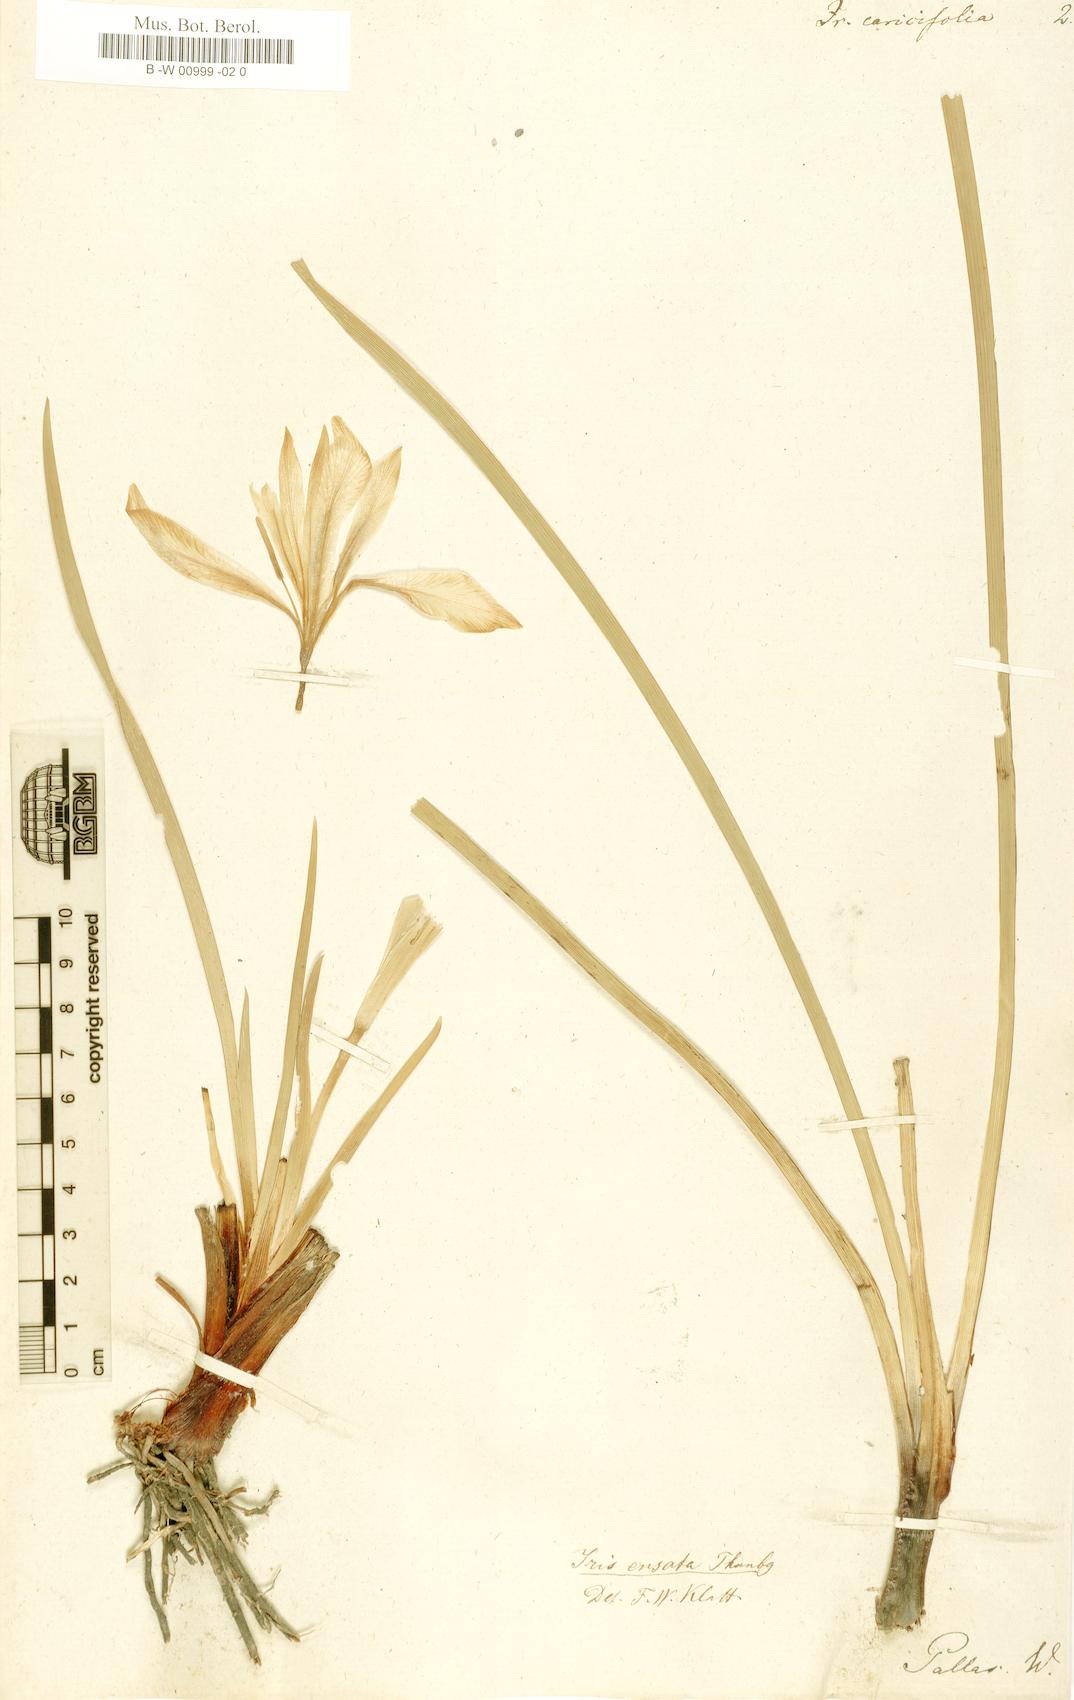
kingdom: Plantae
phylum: Tracheophyta
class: Liliopsida
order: Asparagales
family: Iridaceae
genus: Iris
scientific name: Iris lactea
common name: White-flower chinese iris
